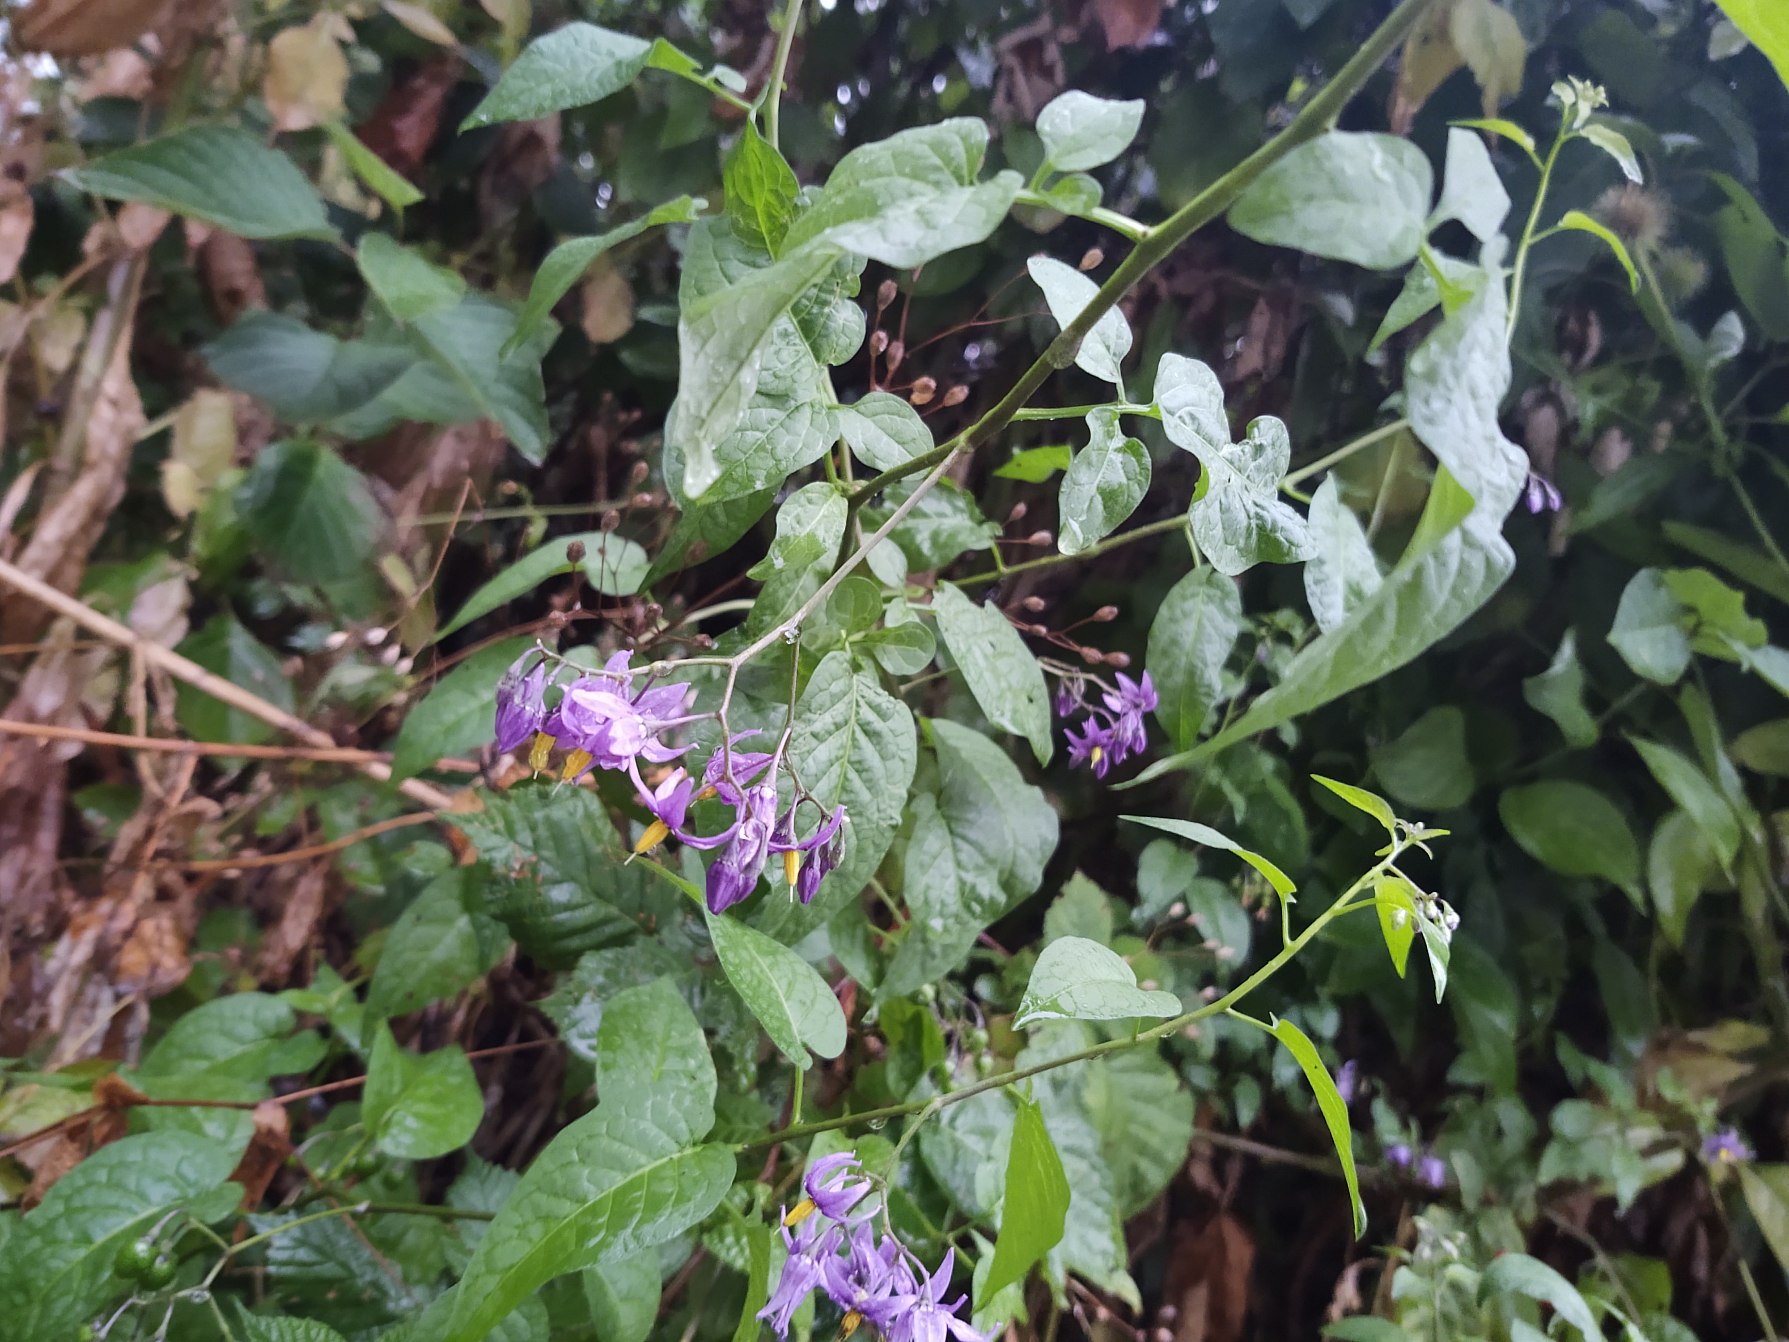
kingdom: Plantae
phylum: Tracheophyta
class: Magnoliopsida
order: Solanales
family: Solanaceae
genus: Solanum
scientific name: Solanum dulcamara
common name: Bittersød natskygge
